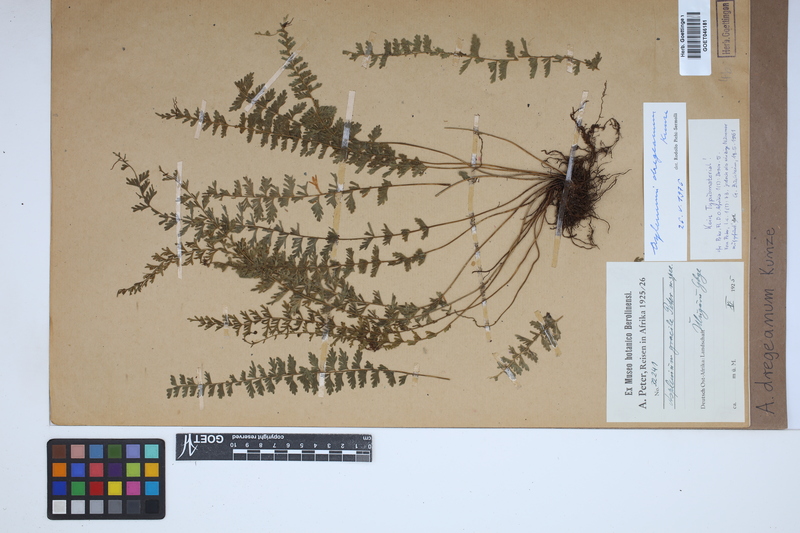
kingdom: Plantae
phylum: Tracheophyta
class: Polypodiopsida
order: Polypodiales
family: Aspleniaceae
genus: Asplenium
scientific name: Asplenium dregeanum
